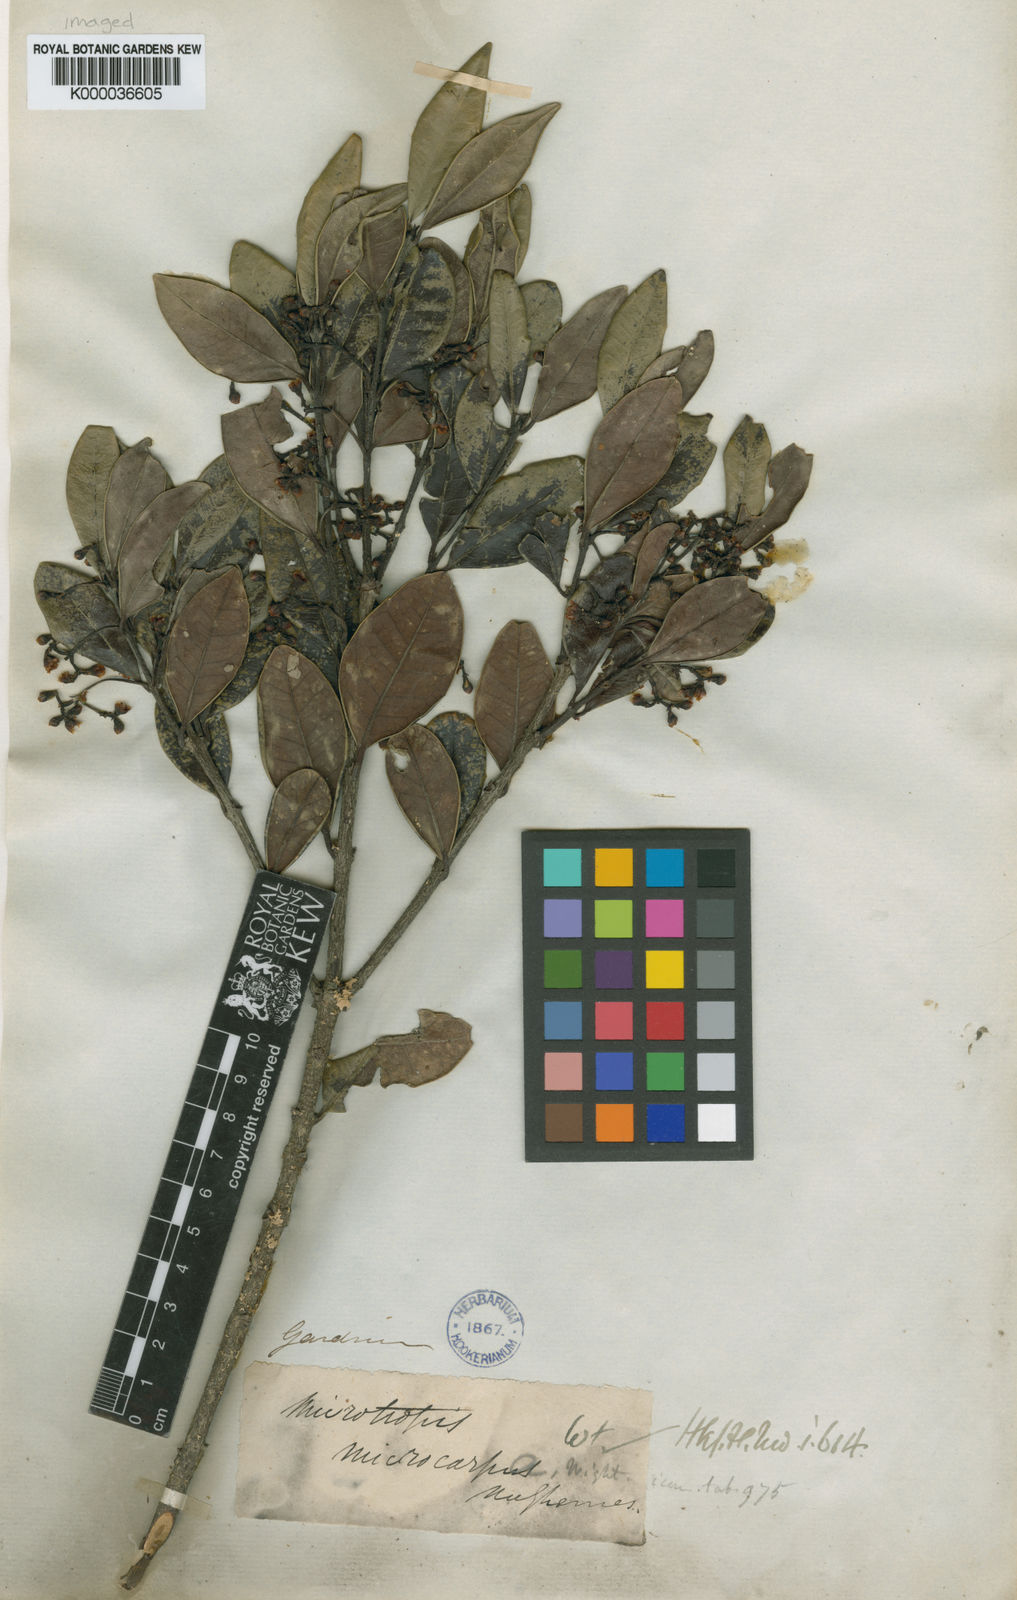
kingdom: Plantae
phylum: Tracheophyta
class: Magnoliopsida
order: Celastrales
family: Celastraceae
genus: Microtropis
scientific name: Microtropis microcarpa
